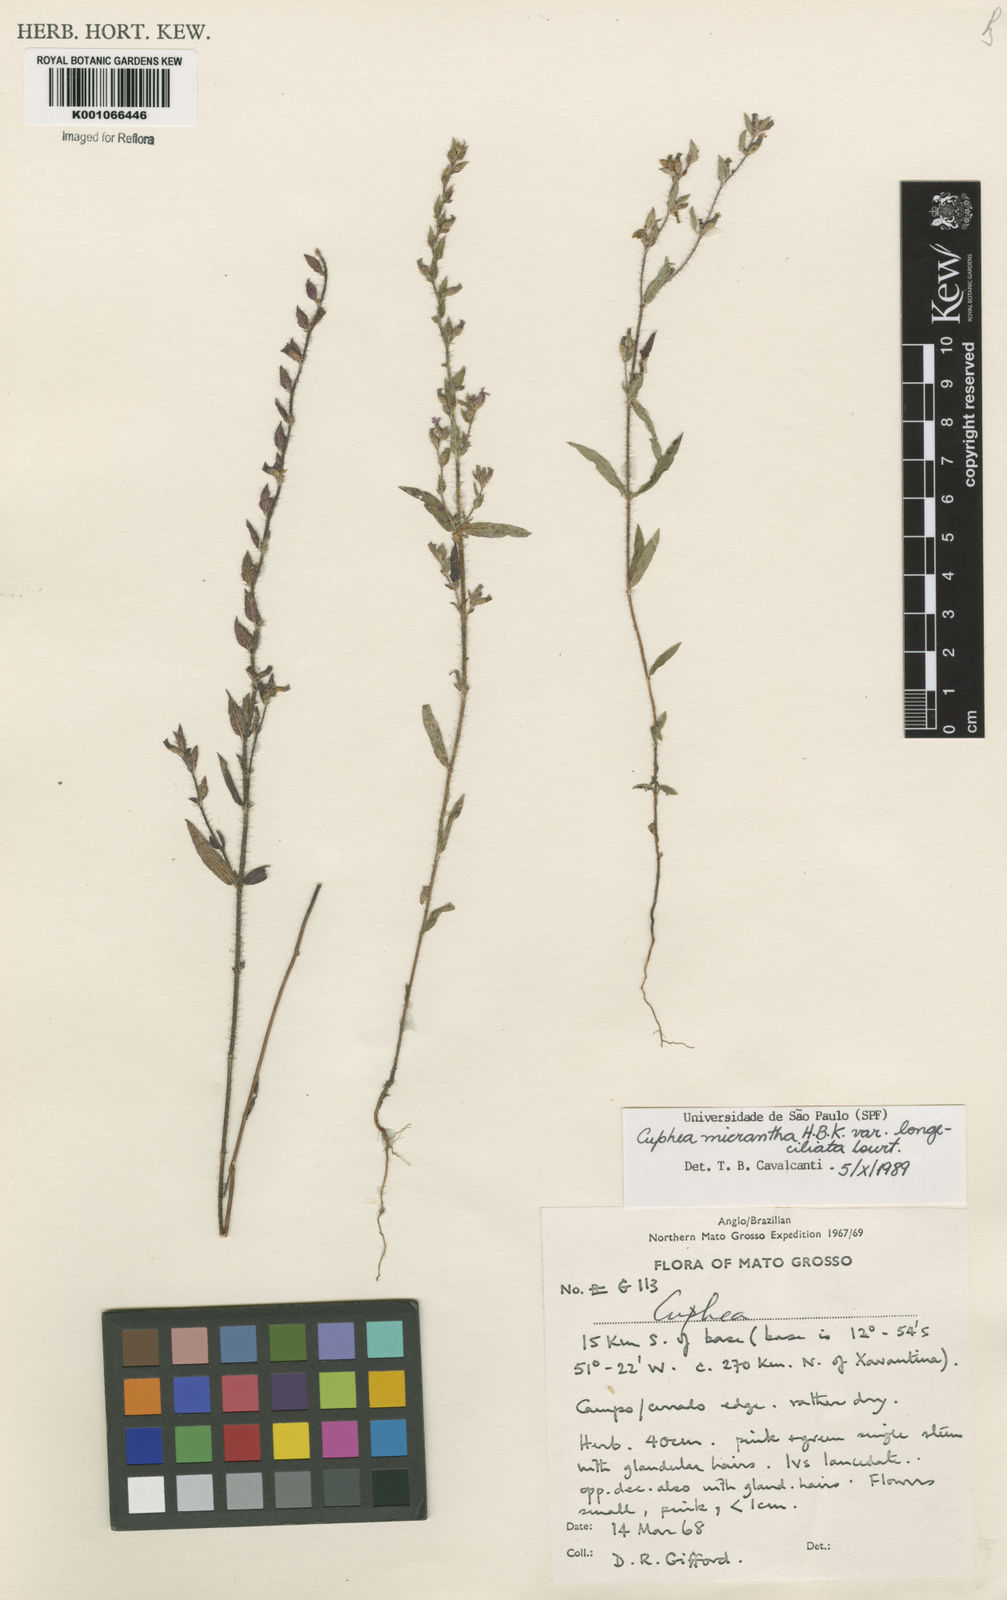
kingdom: Plantae
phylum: Tracheophyta
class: Magnoliopsida
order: Myrtales
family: Lythraceae
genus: Cuphea
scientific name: Cuphea micrantha
